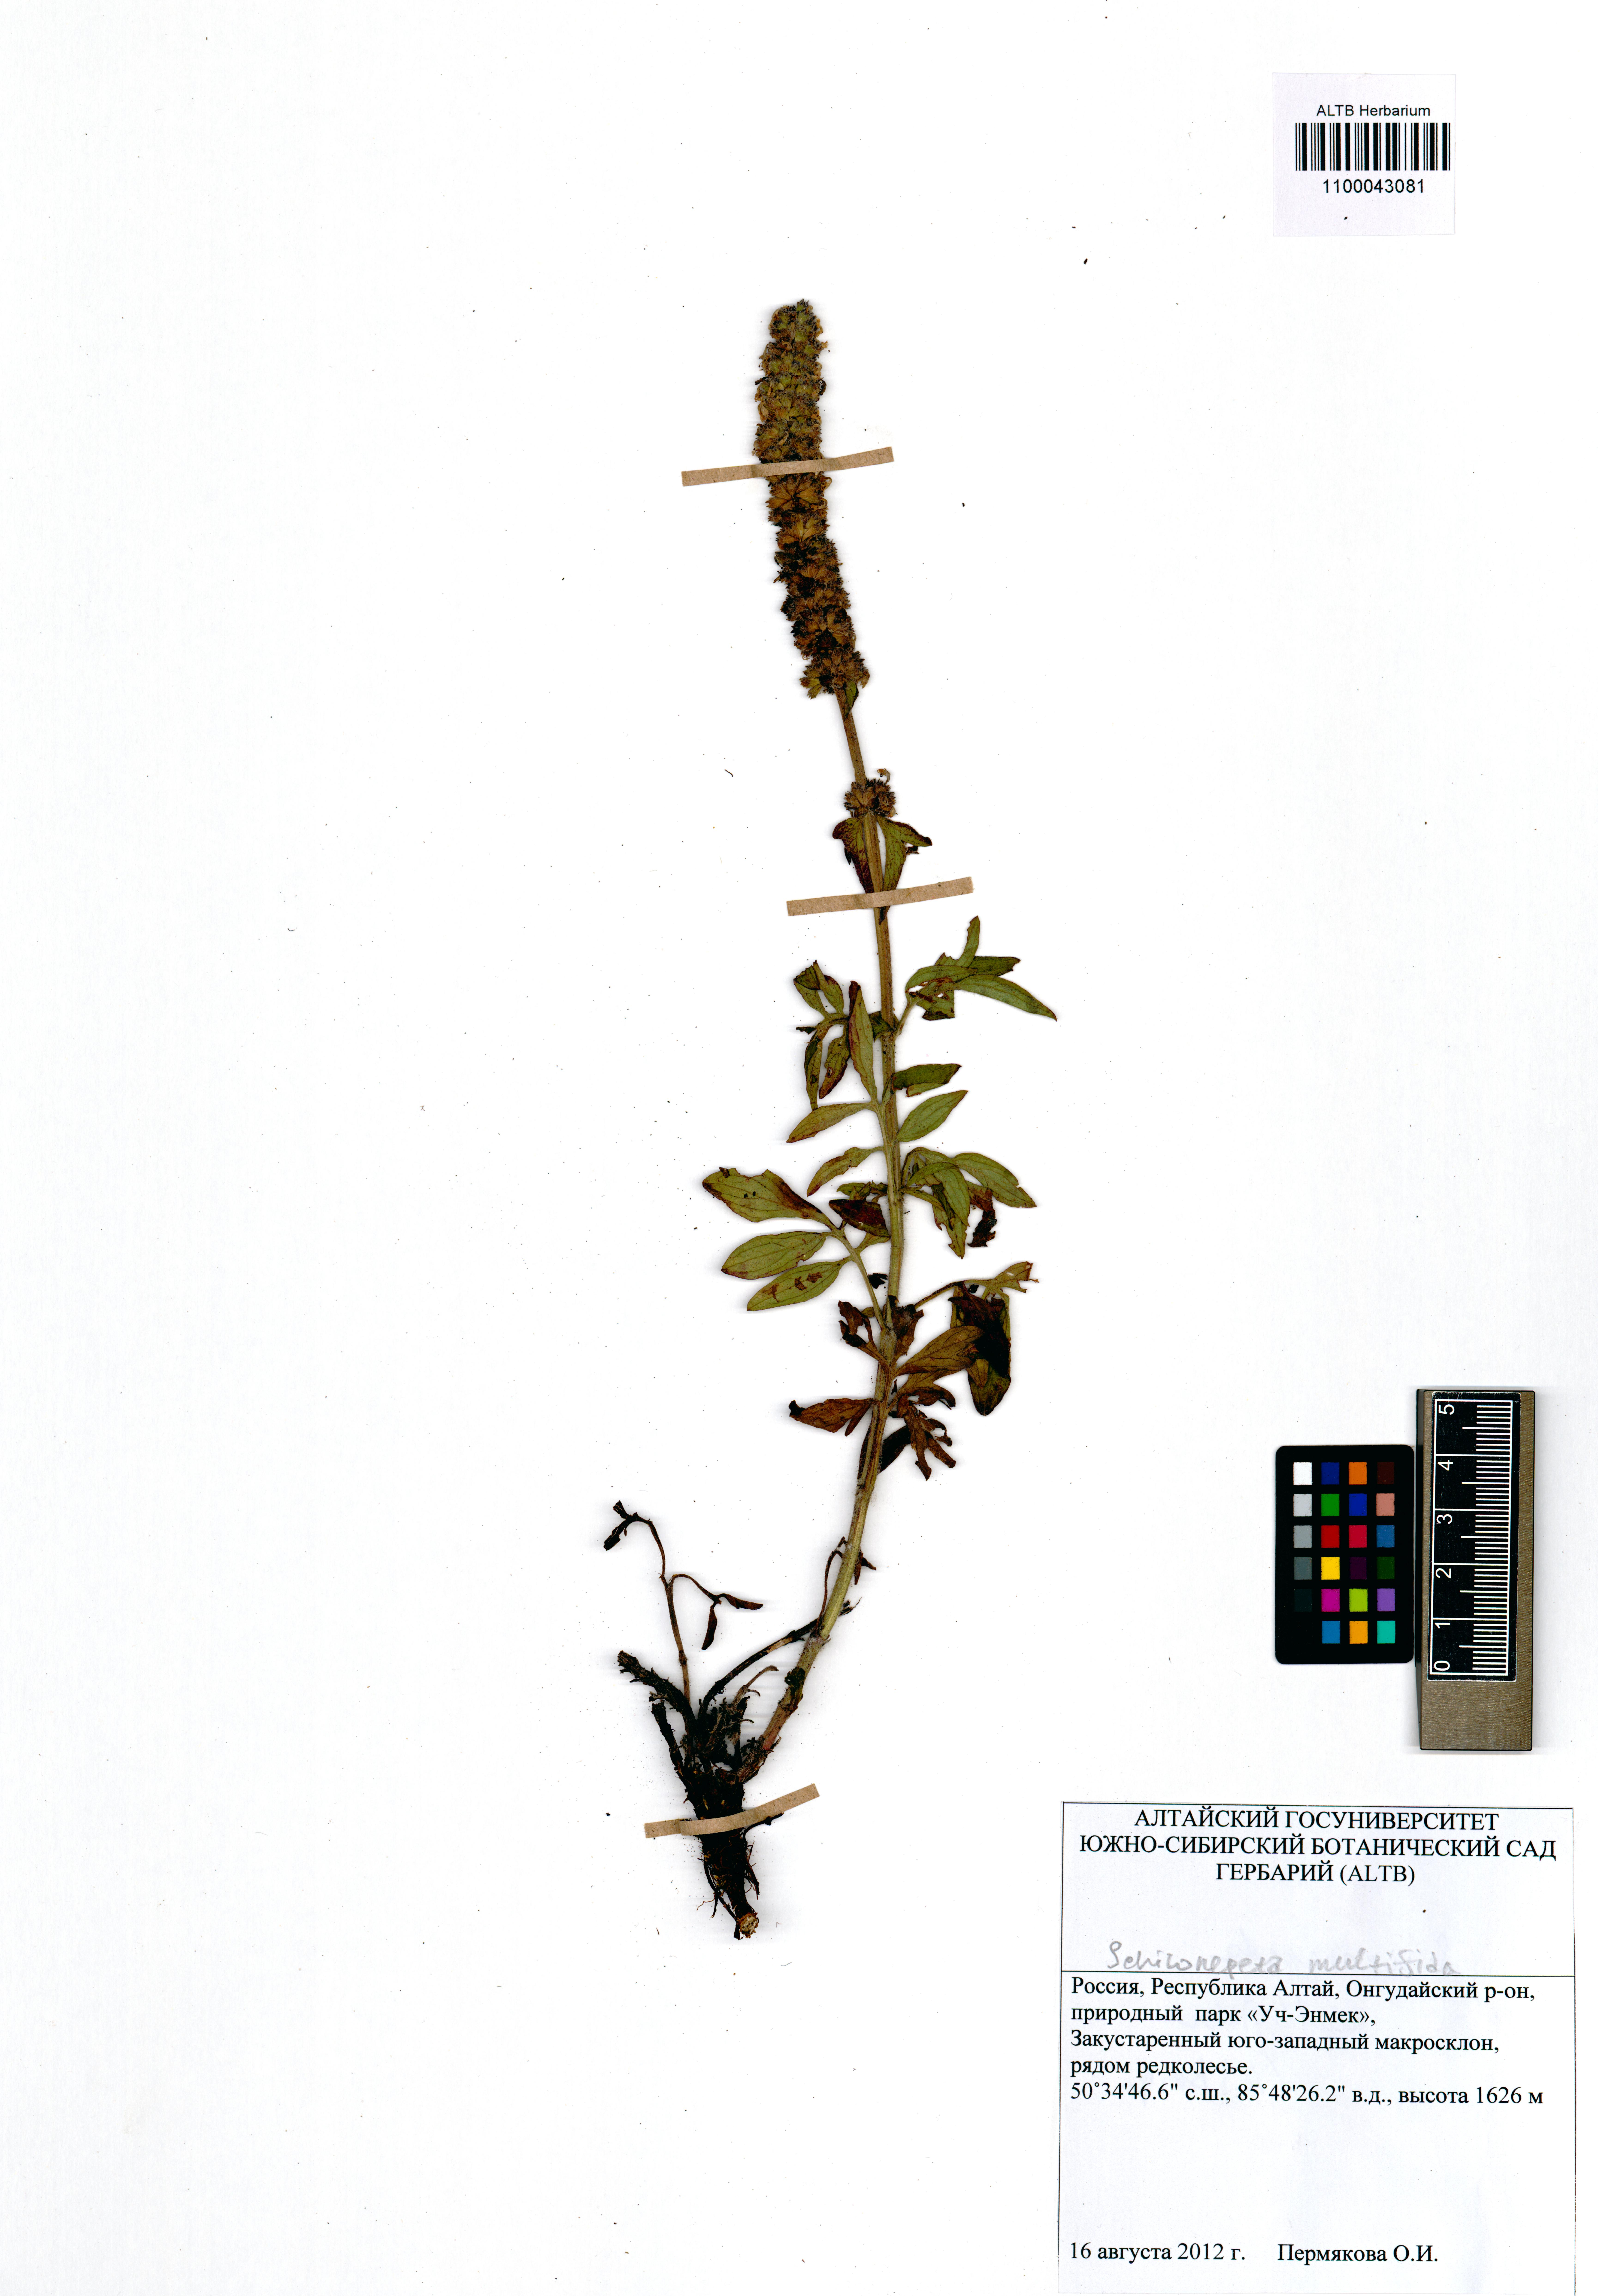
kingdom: Plantae
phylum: Tracheophyta
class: Magnoliopsida
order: Lamiales
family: Lamiaceae
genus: Nepeta
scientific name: Nepeta multifida
